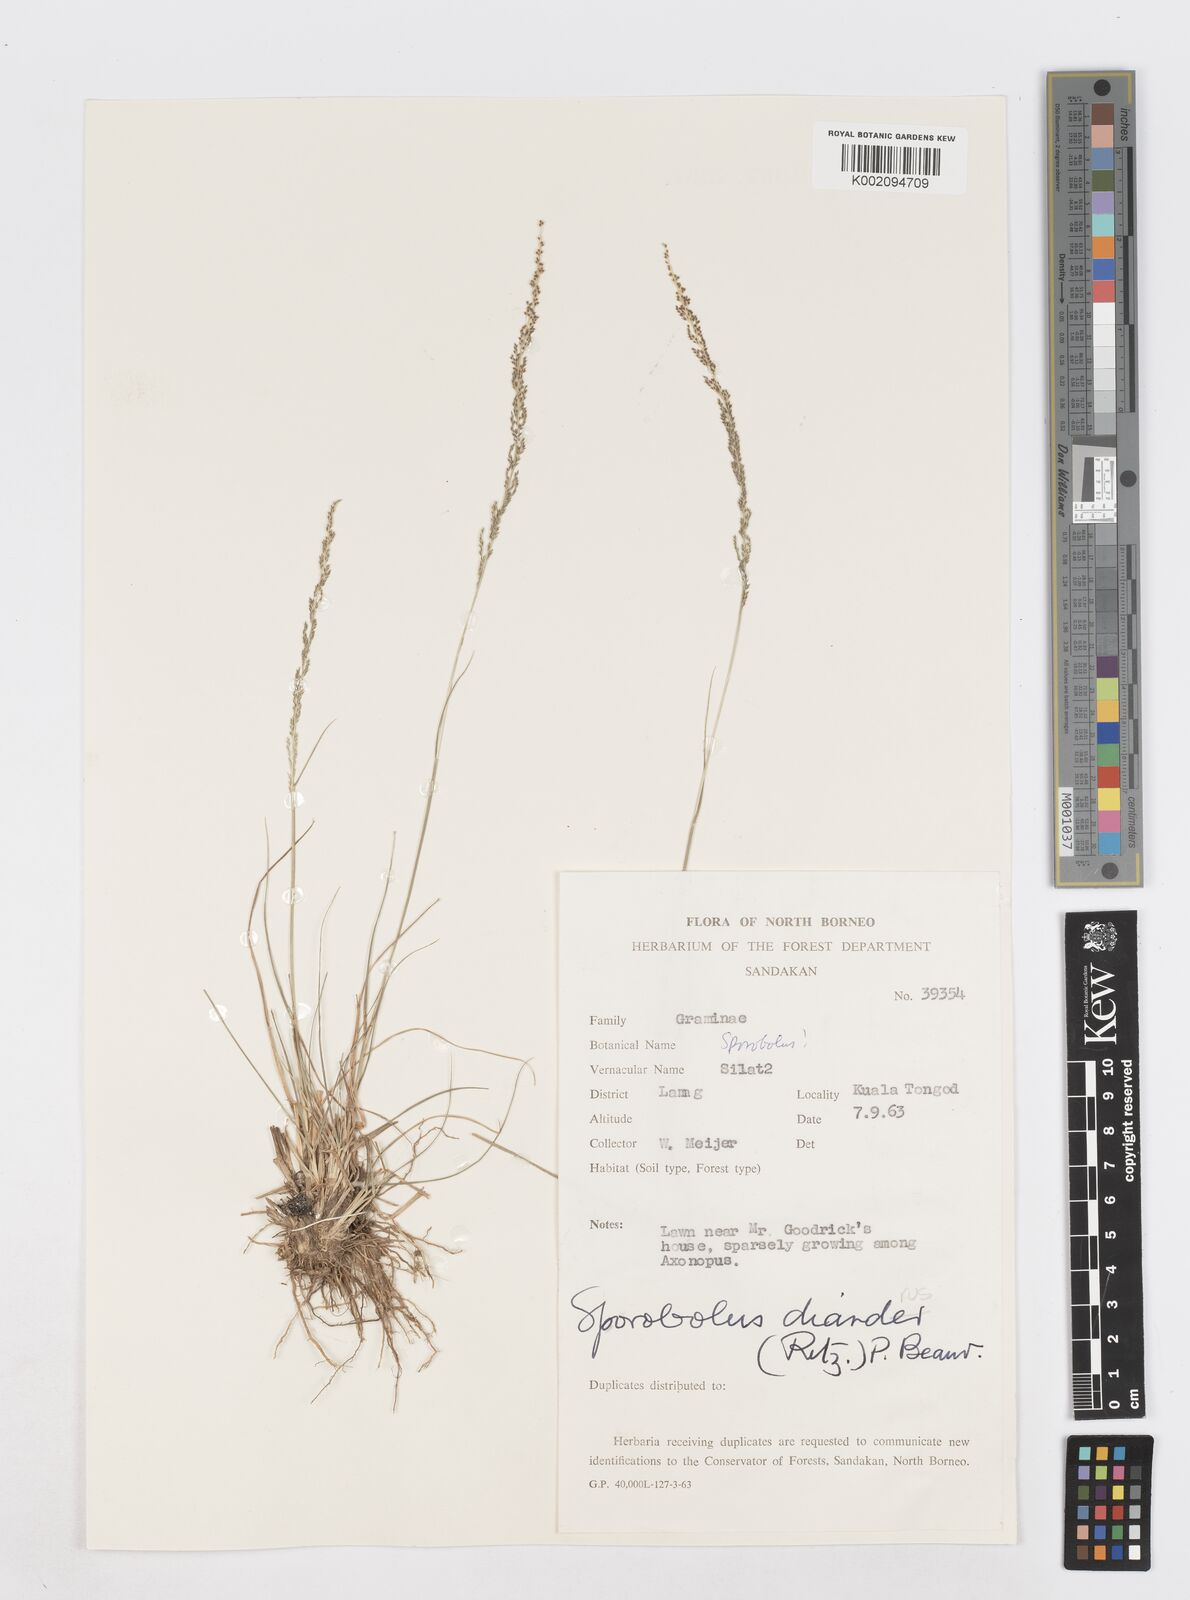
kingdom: Plantae
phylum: Tracheophyta
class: Liliopsida
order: Poales
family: Poaceae
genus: Sporobolus
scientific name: Sporobolus diandrus
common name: Tussock dropseed
